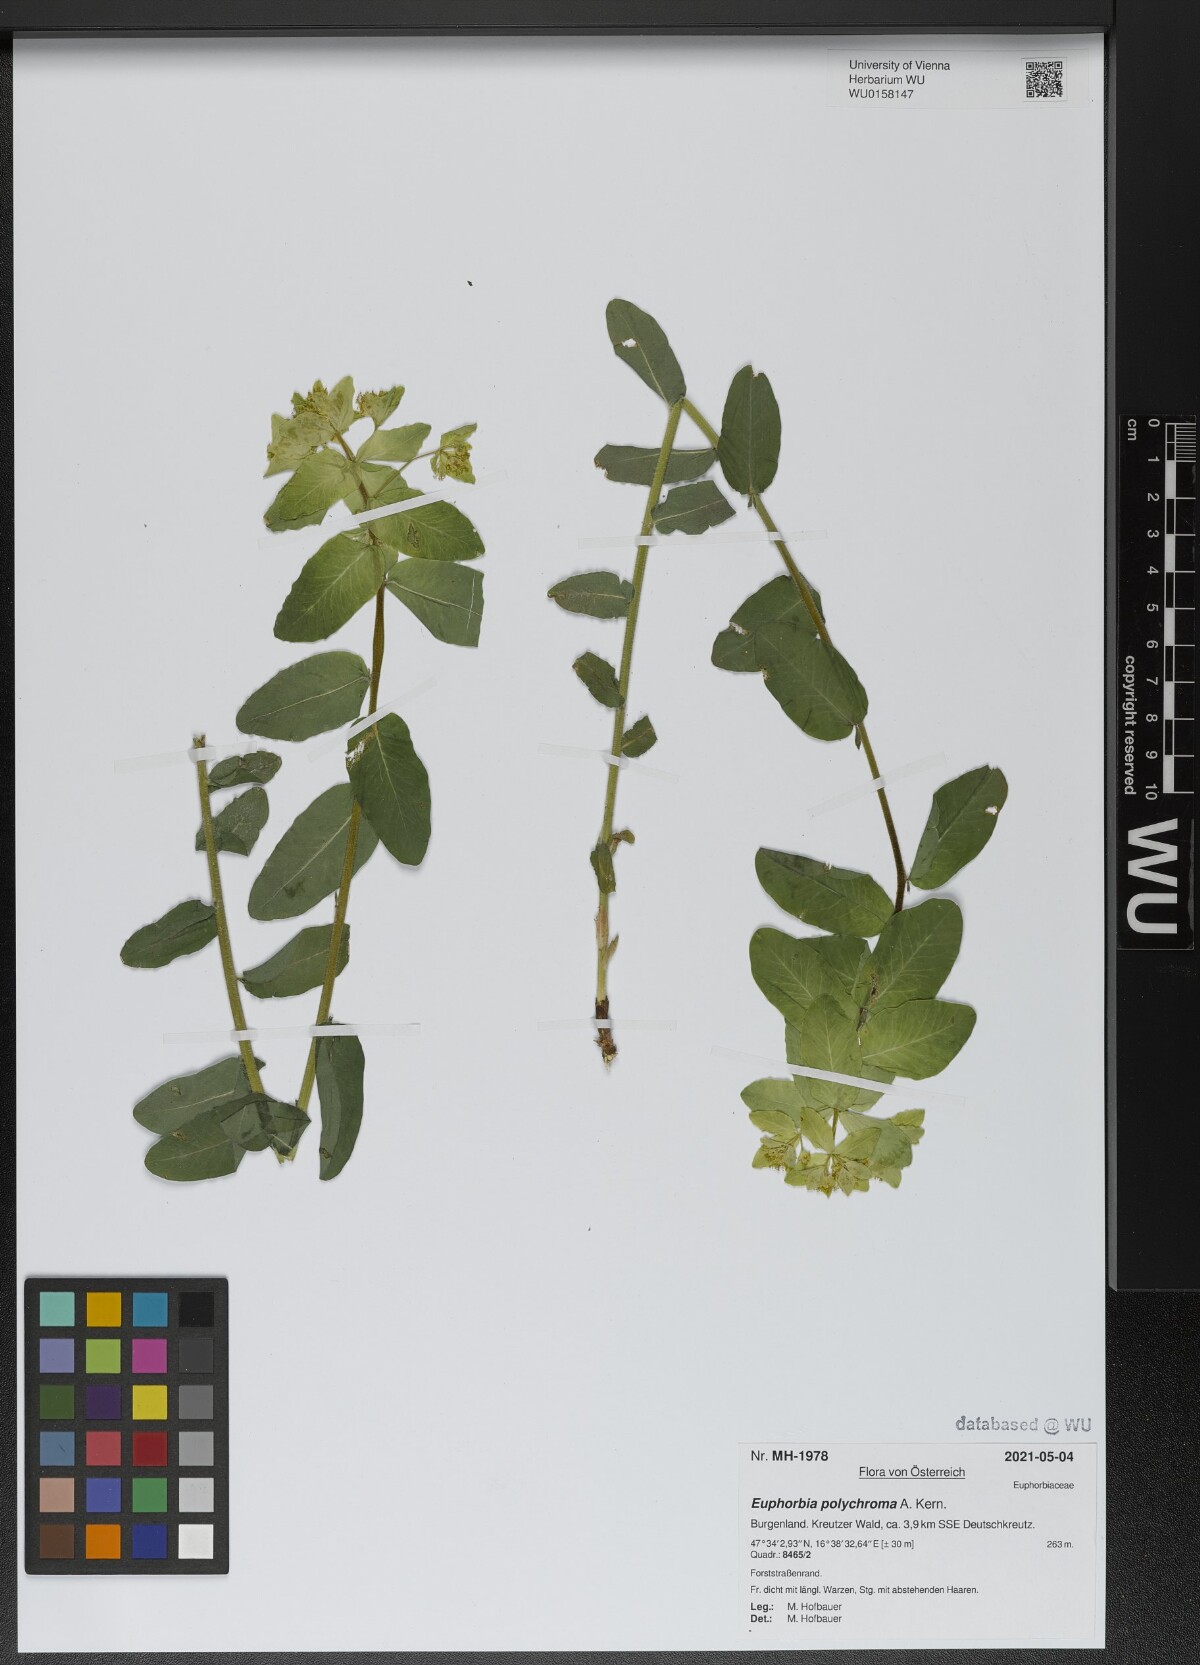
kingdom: Plantae
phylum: Tracheophyta
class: Magnoliopsida
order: Malpighiales
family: Euphorbiaceae
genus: Euphorbia
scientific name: Euphorbia epithymoides
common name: Cushion spurge
